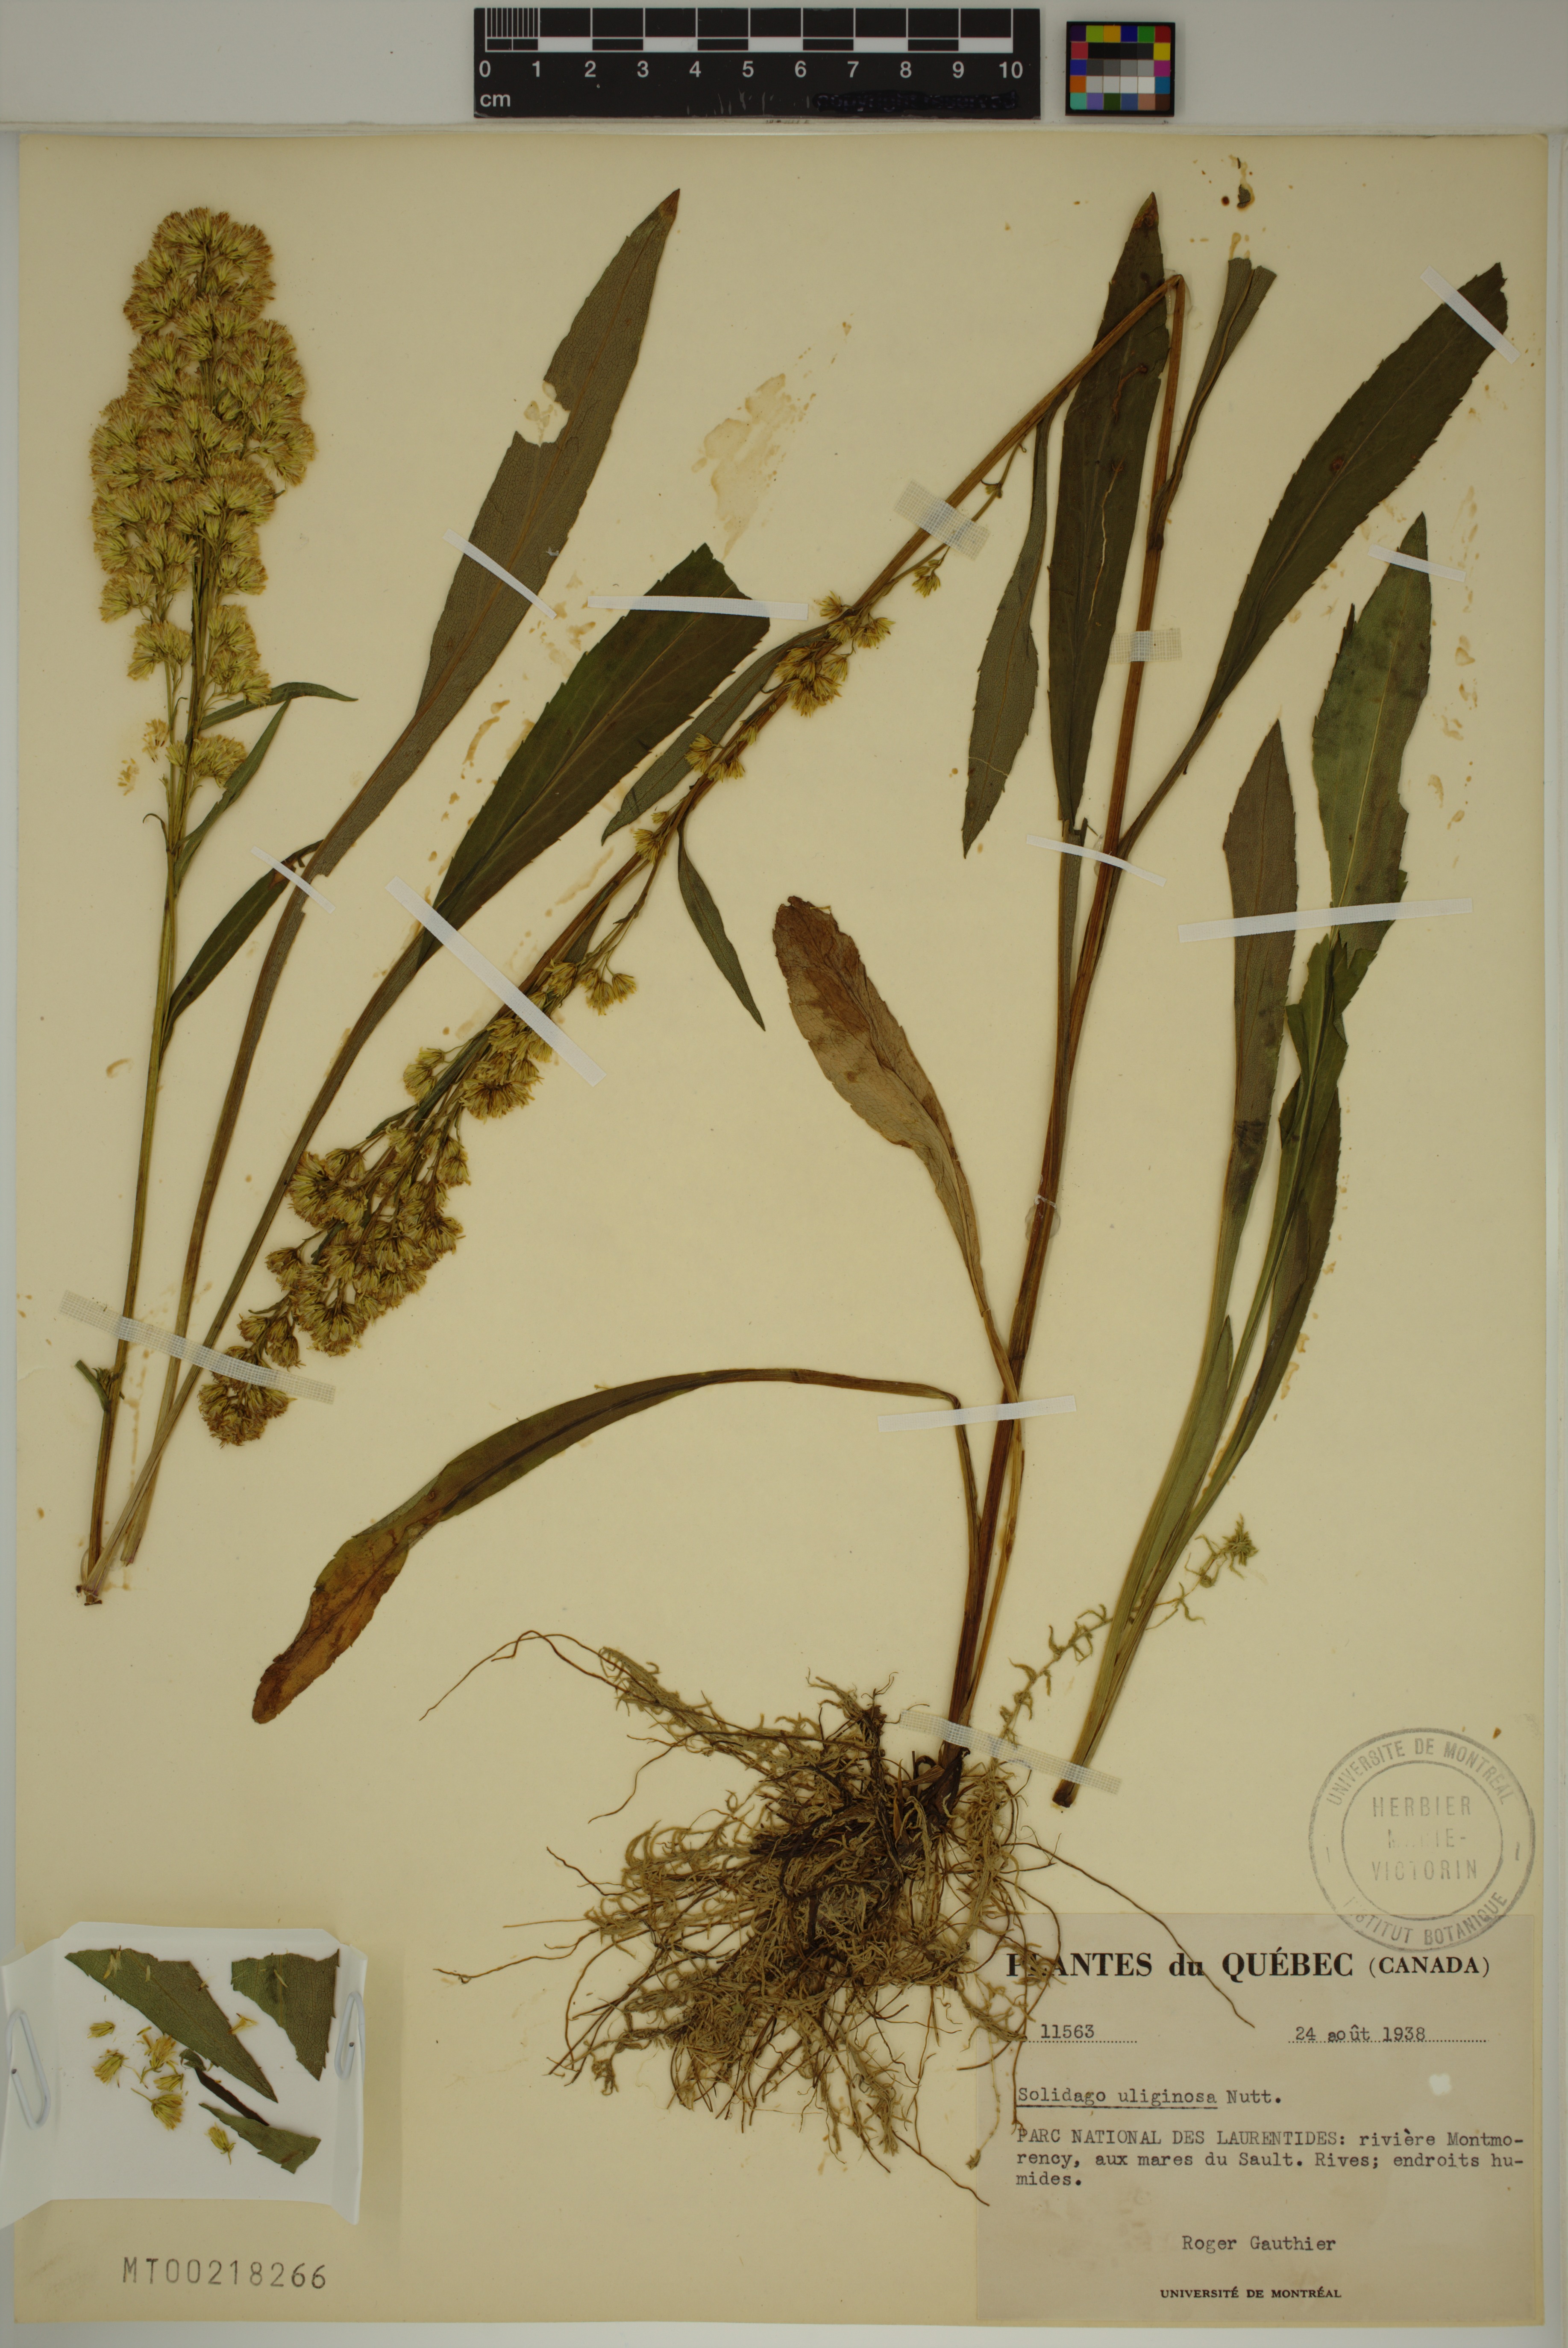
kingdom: Plantae
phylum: Tracheophyta
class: Magnoliopsida
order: Asterales
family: Asteraceae
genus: Solidago
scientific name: Solidago uliginosa
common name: Bog goldenrod
